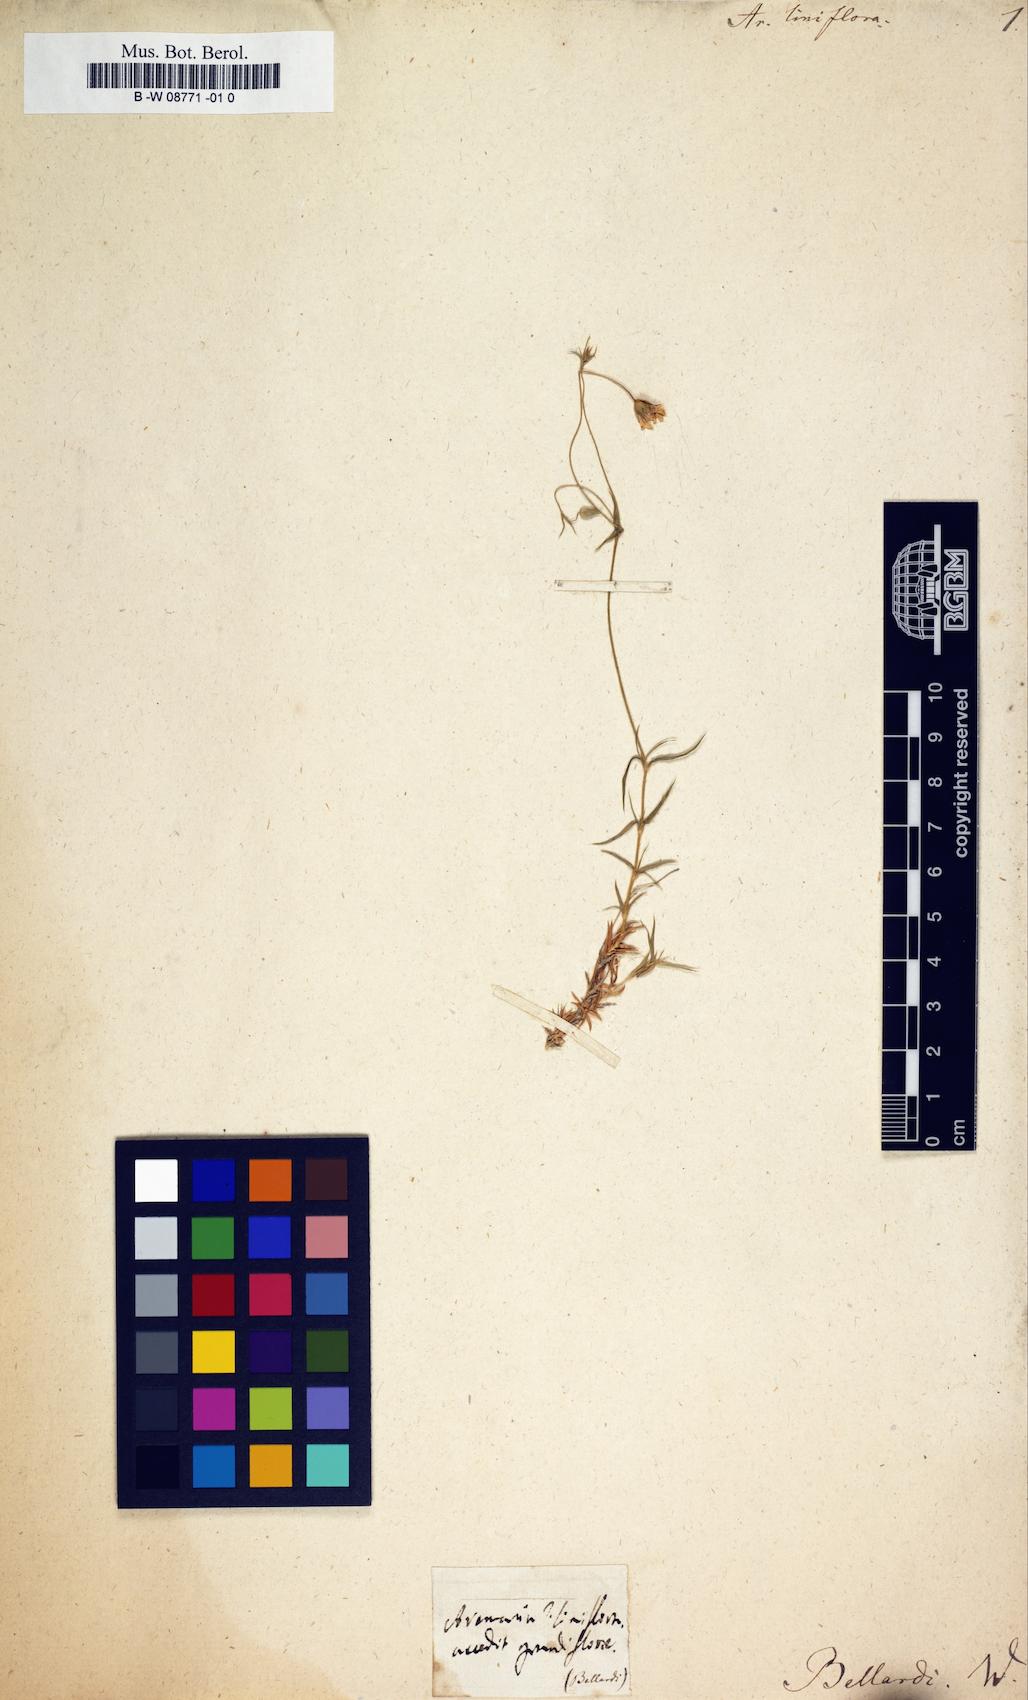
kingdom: Plantae
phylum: Tracheophyta
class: Magnoliopsida
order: Caryophyllales
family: Caryophyllaceae
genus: Arenaria
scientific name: Arenaria grandiflora
